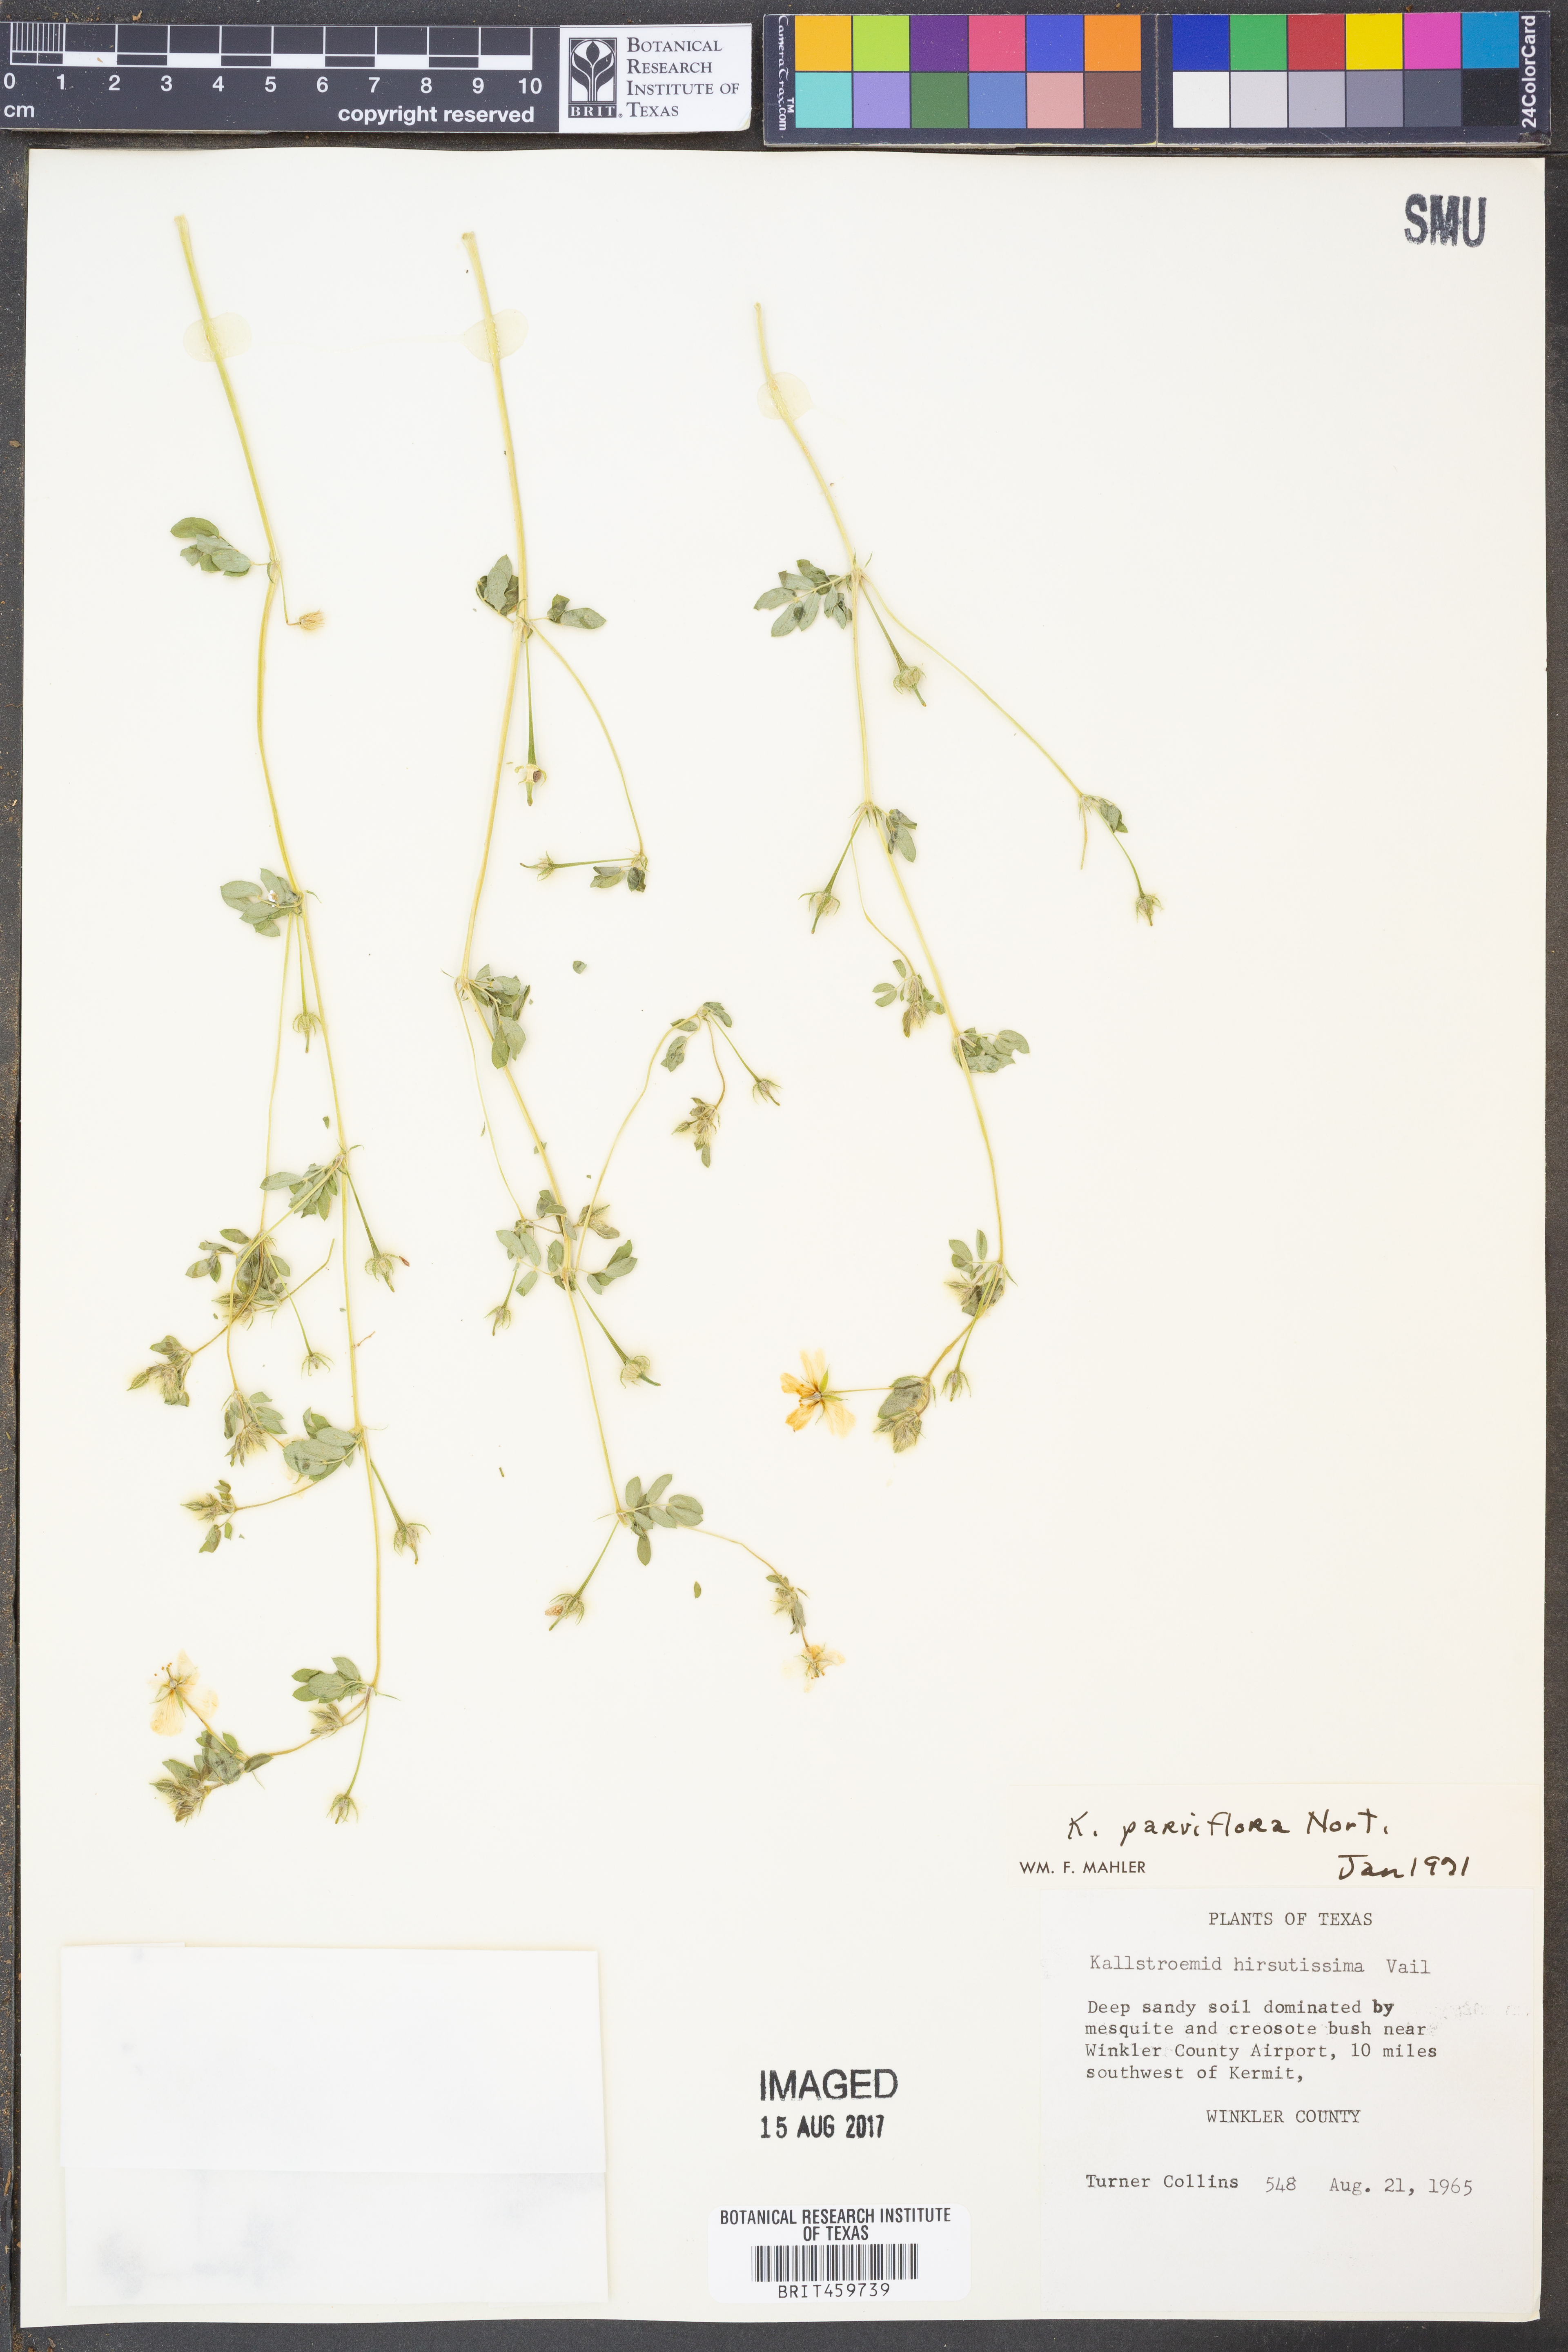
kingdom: Plantae
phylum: Tracheophyta
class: Magnoliopsida
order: Zygophyllales
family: Zygophyllaceae
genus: Kallstroemia
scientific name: Kallstroemia parviflora
